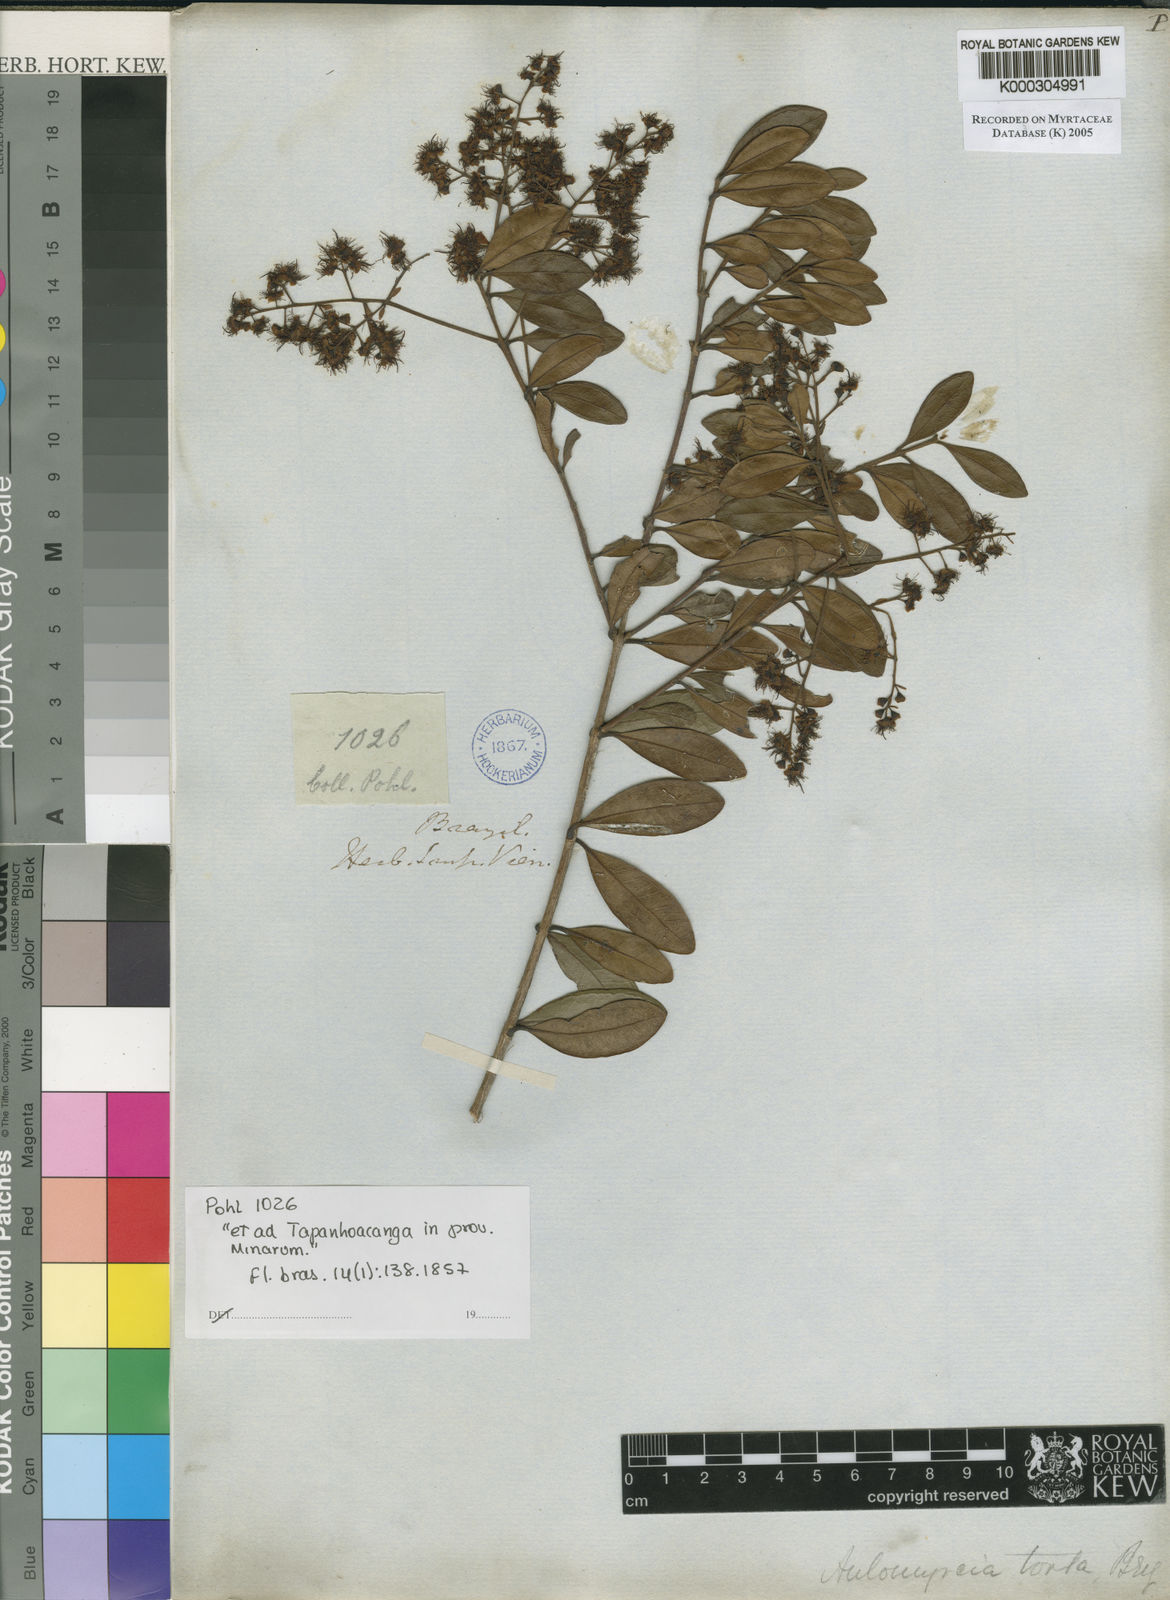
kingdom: Plantae
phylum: Tracheophyta
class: Magnoliopsida
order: Myrtales
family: Myrtaceae
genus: Myrcia
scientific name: Myrcia guianensis
